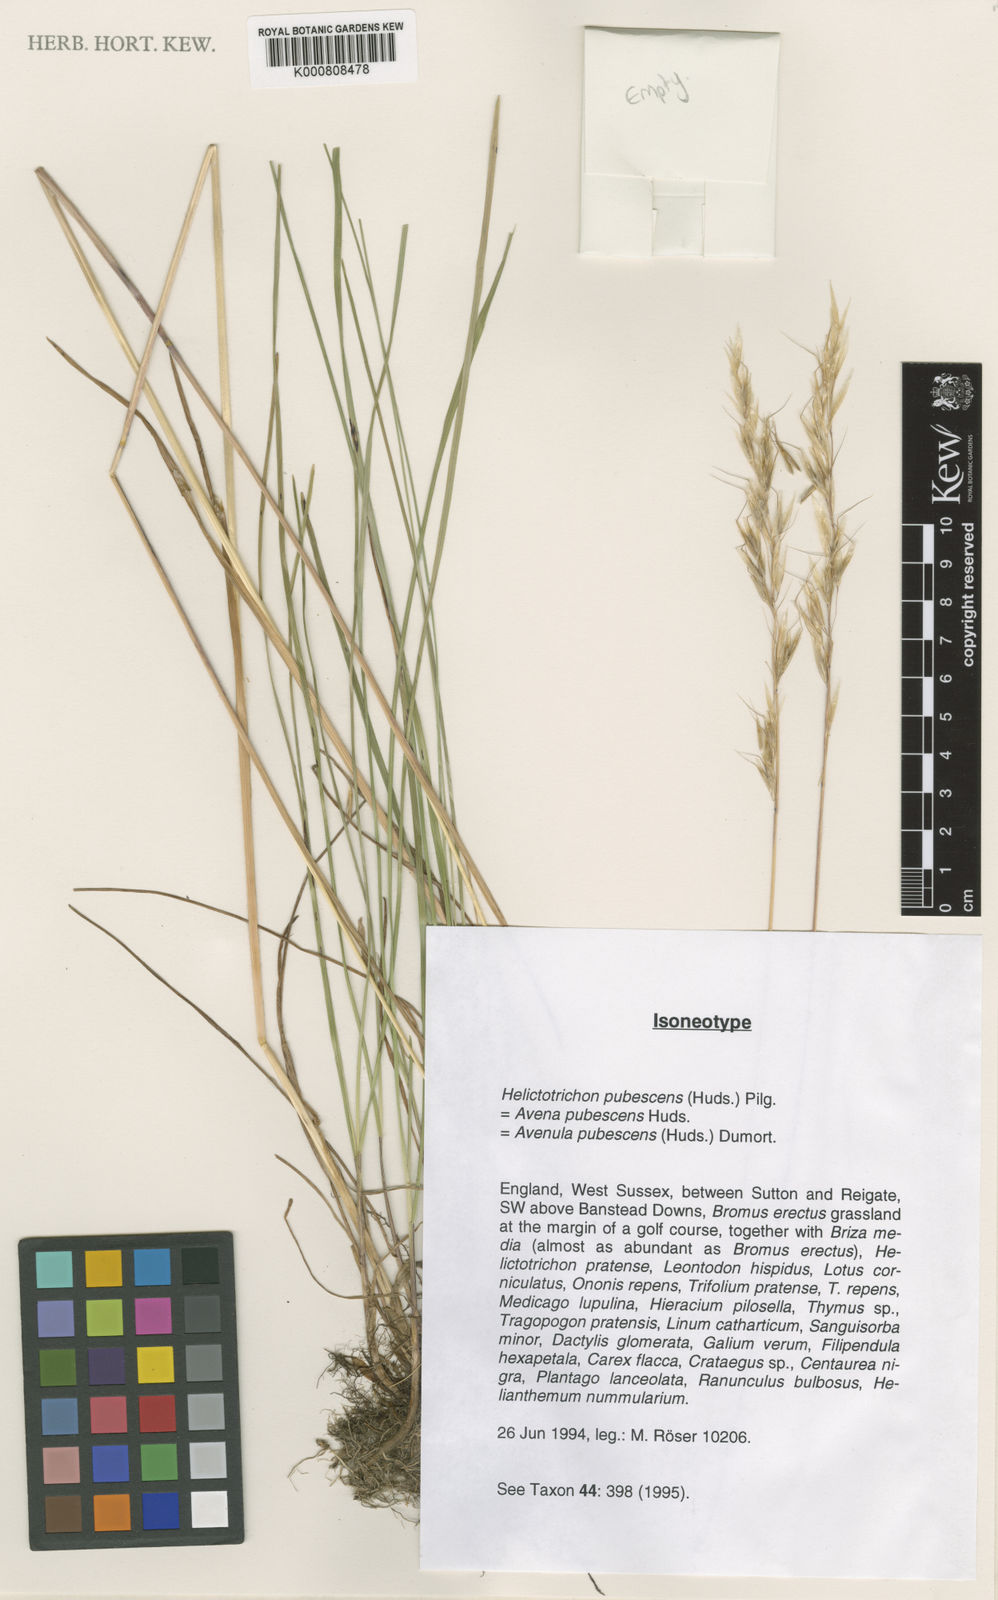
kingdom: Plantae
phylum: Tracheophyta
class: Liliopsida
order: Poales
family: Poaceae
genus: Avenula
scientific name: Avenula pubescens
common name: Downy alpine oatgrass
